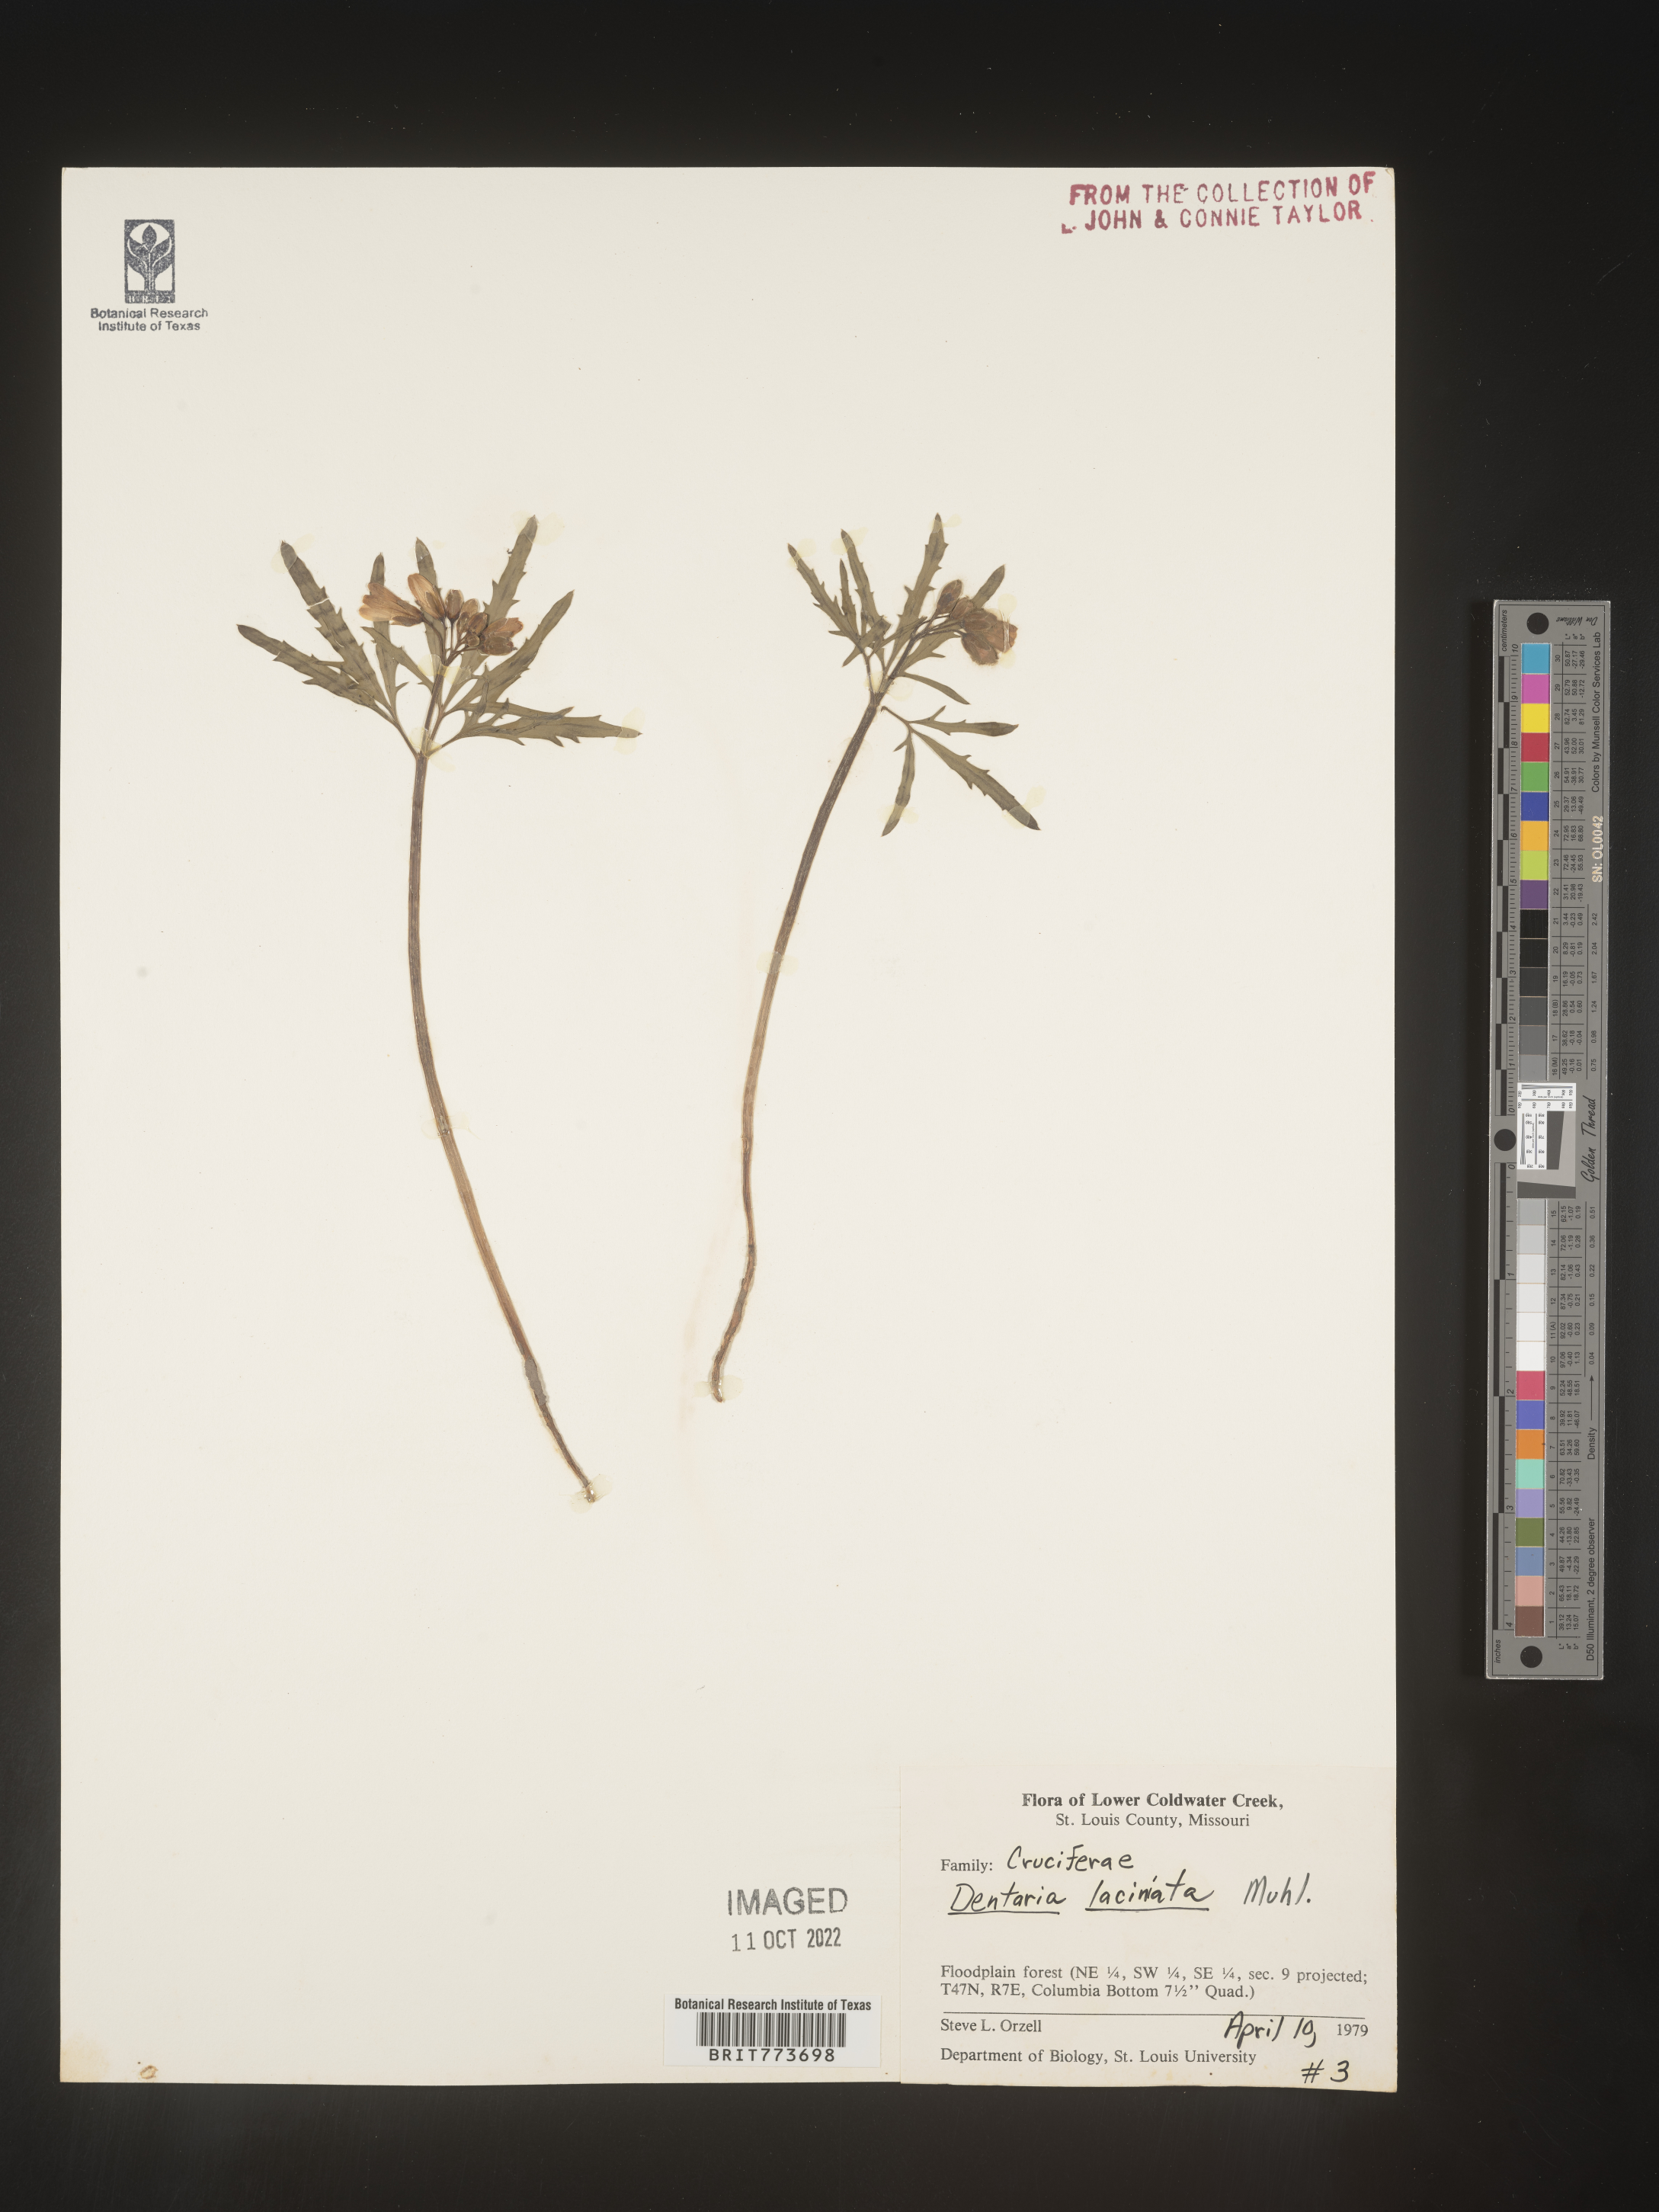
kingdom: Plantae
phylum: Tracheophyta
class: Magnoliopsida
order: Brassicales
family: Brassicaceae
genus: Rorippa
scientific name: Rorippa laciniata
